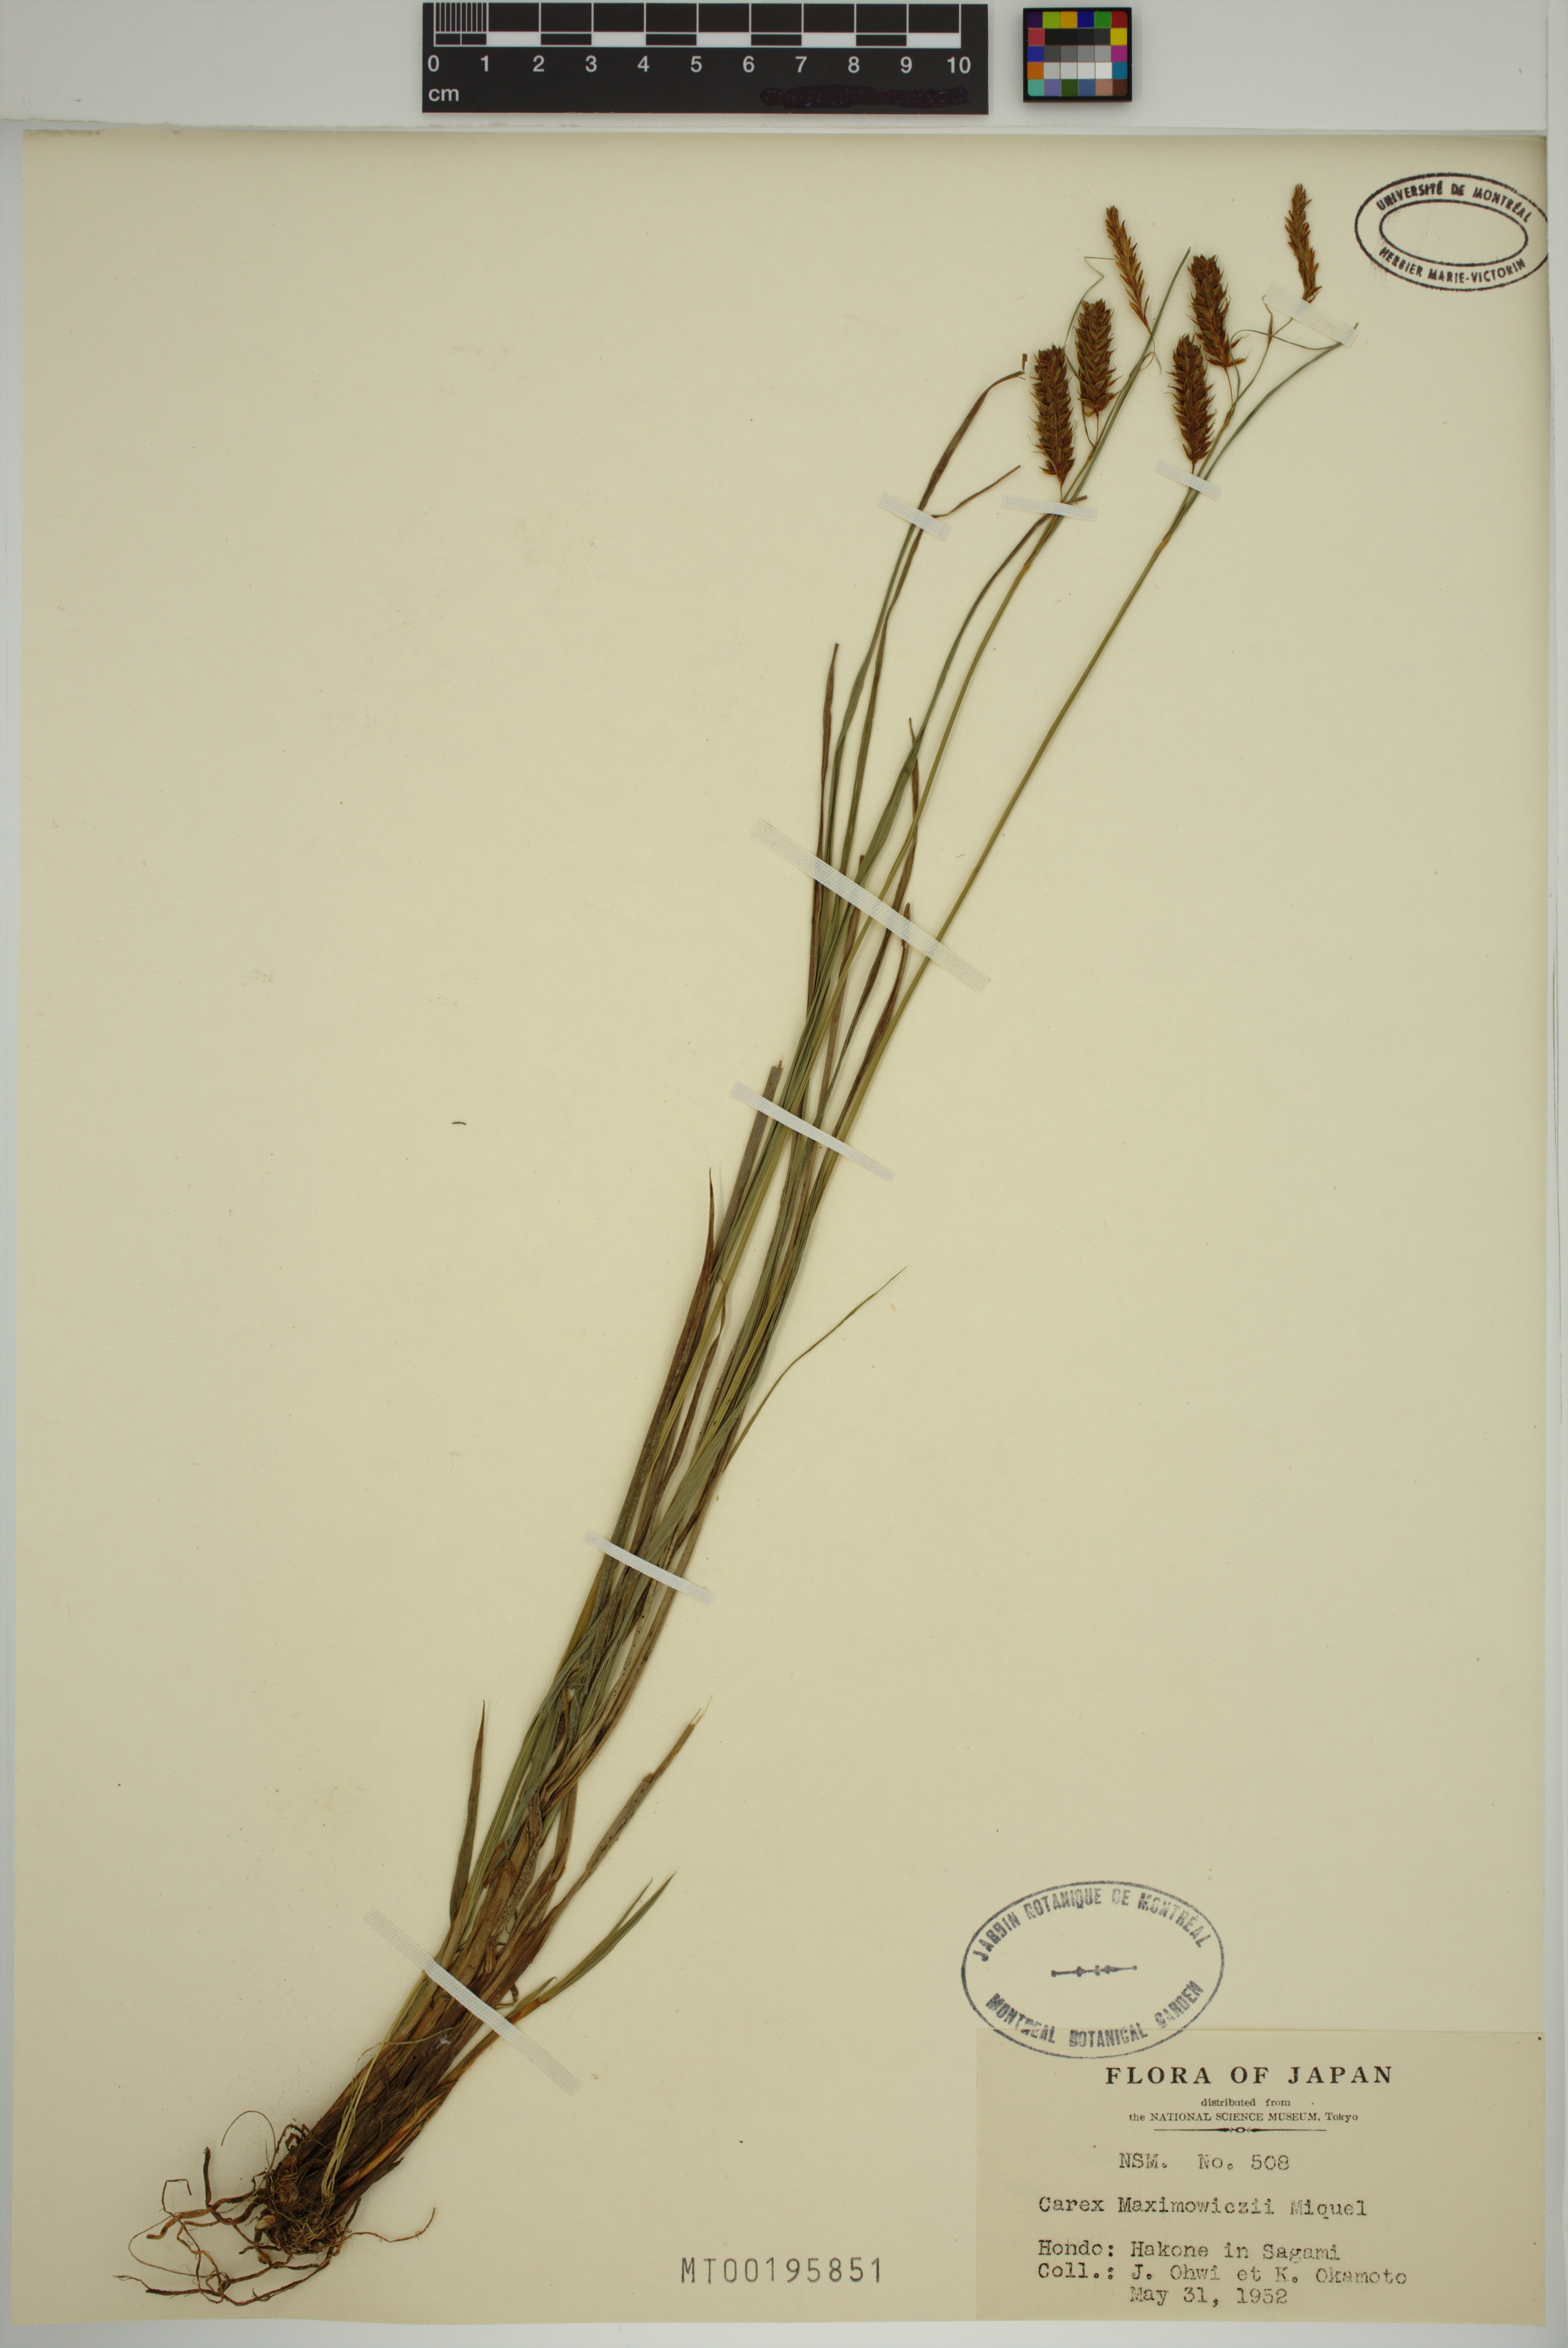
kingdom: Plantae
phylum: Tracheophyta
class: Liliopsida
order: Poales
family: Cyperaceae
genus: Carex
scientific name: Carex maximowiczii
